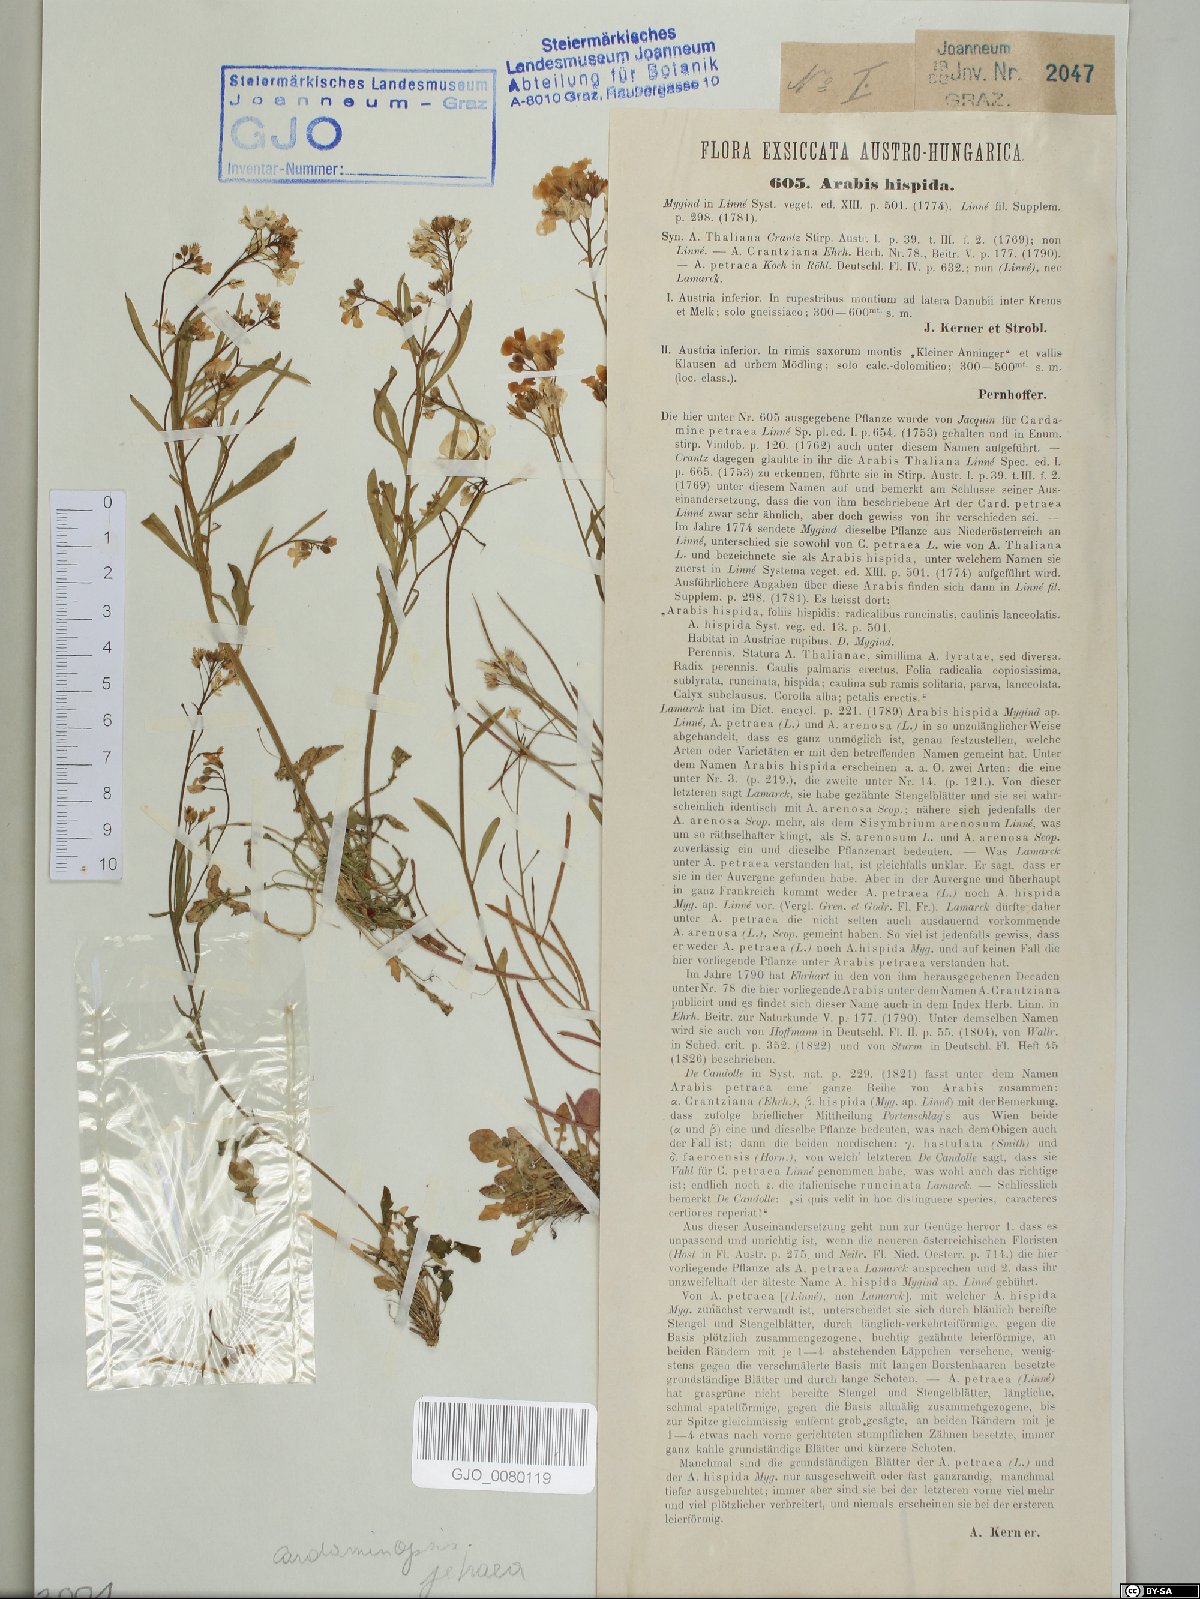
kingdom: Plantae
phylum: Tracheophyta
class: Magnoliopsida
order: Brassicales
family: Brassicaceae
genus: Arabidopsis
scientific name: Arabidopsis lyrata
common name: Lyrate rockcress
